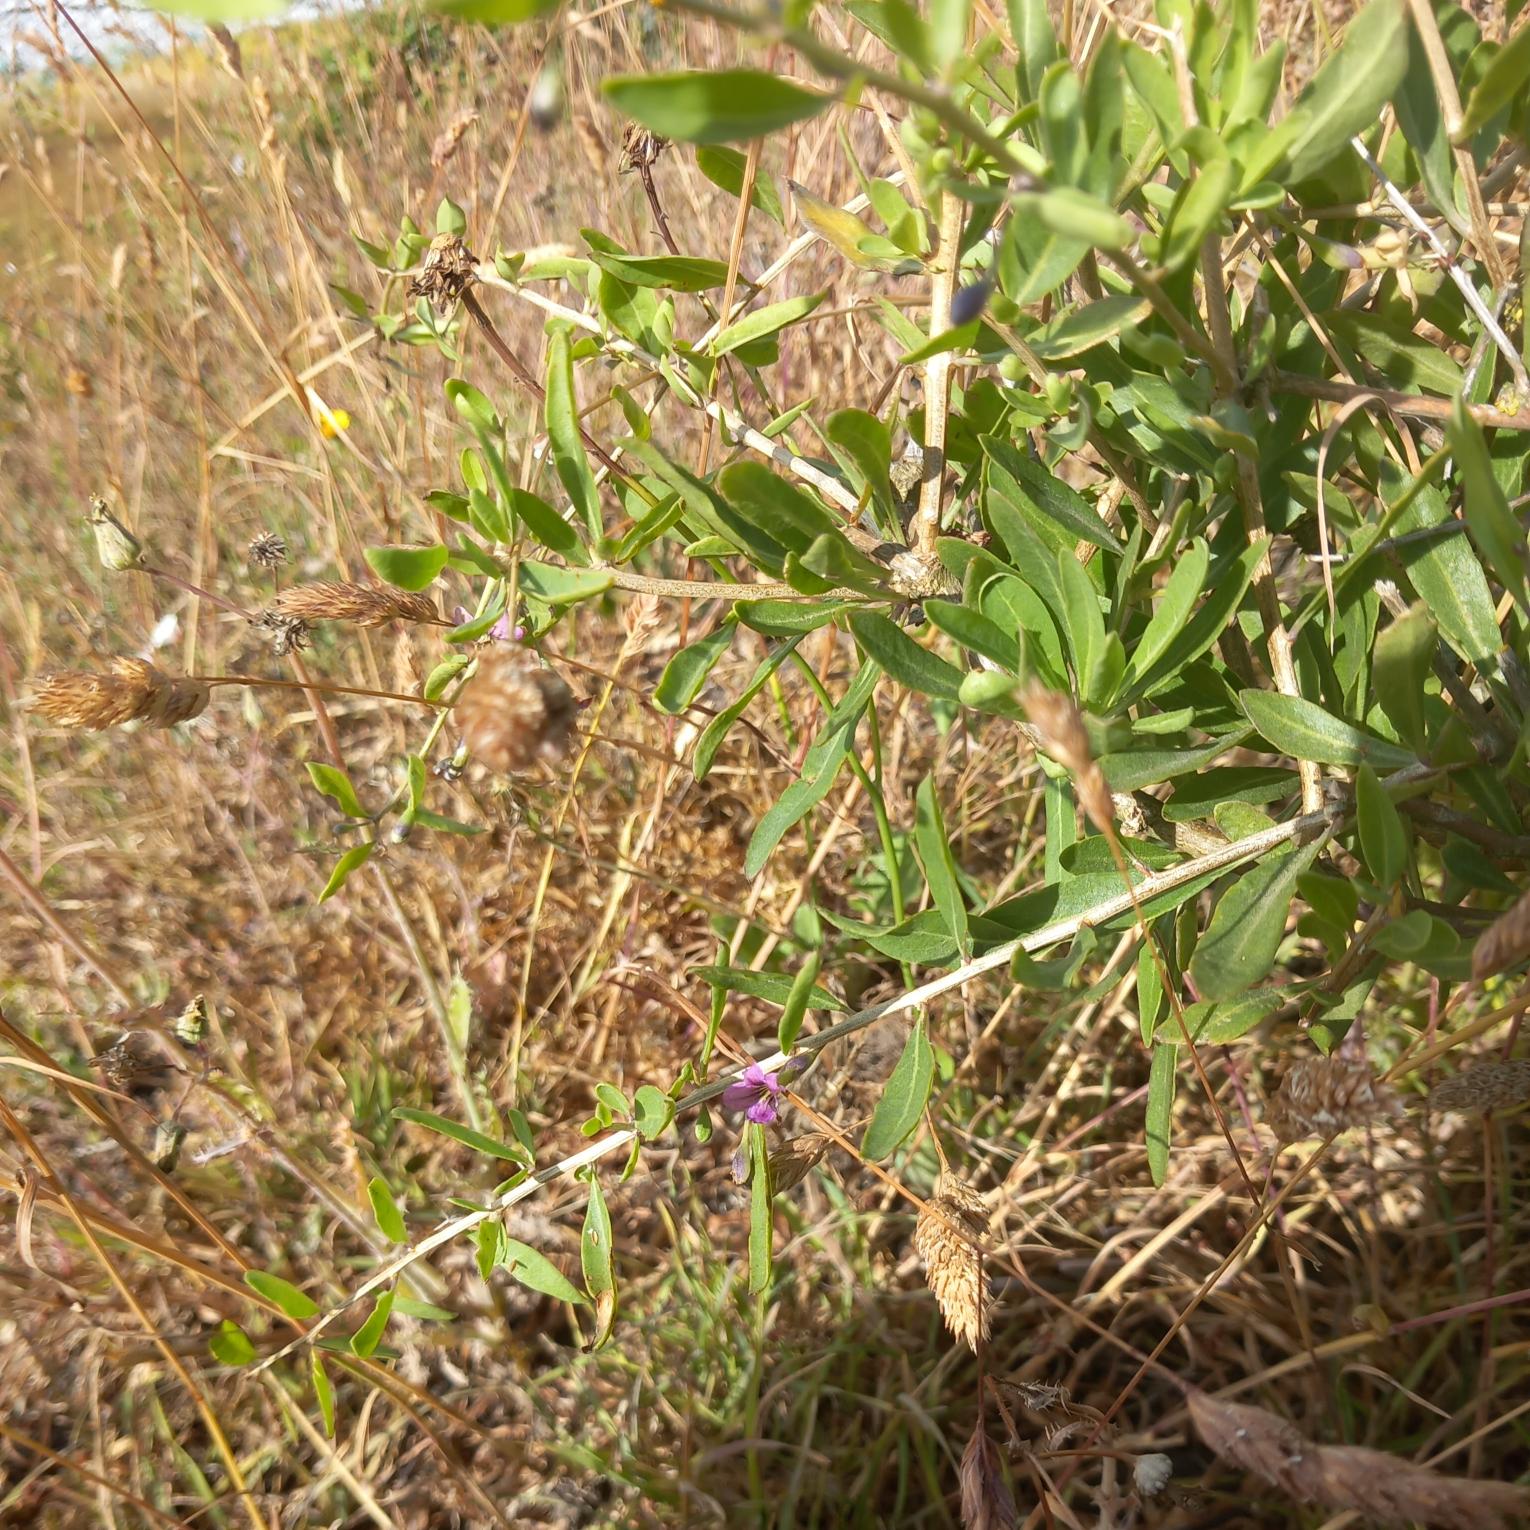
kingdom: Plantae
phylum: Tracheophyta
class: Magnoliopsida
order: Solanales
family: Solanaceae
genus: Lycium
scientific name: Lycium barbarum
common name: Bukketorn
